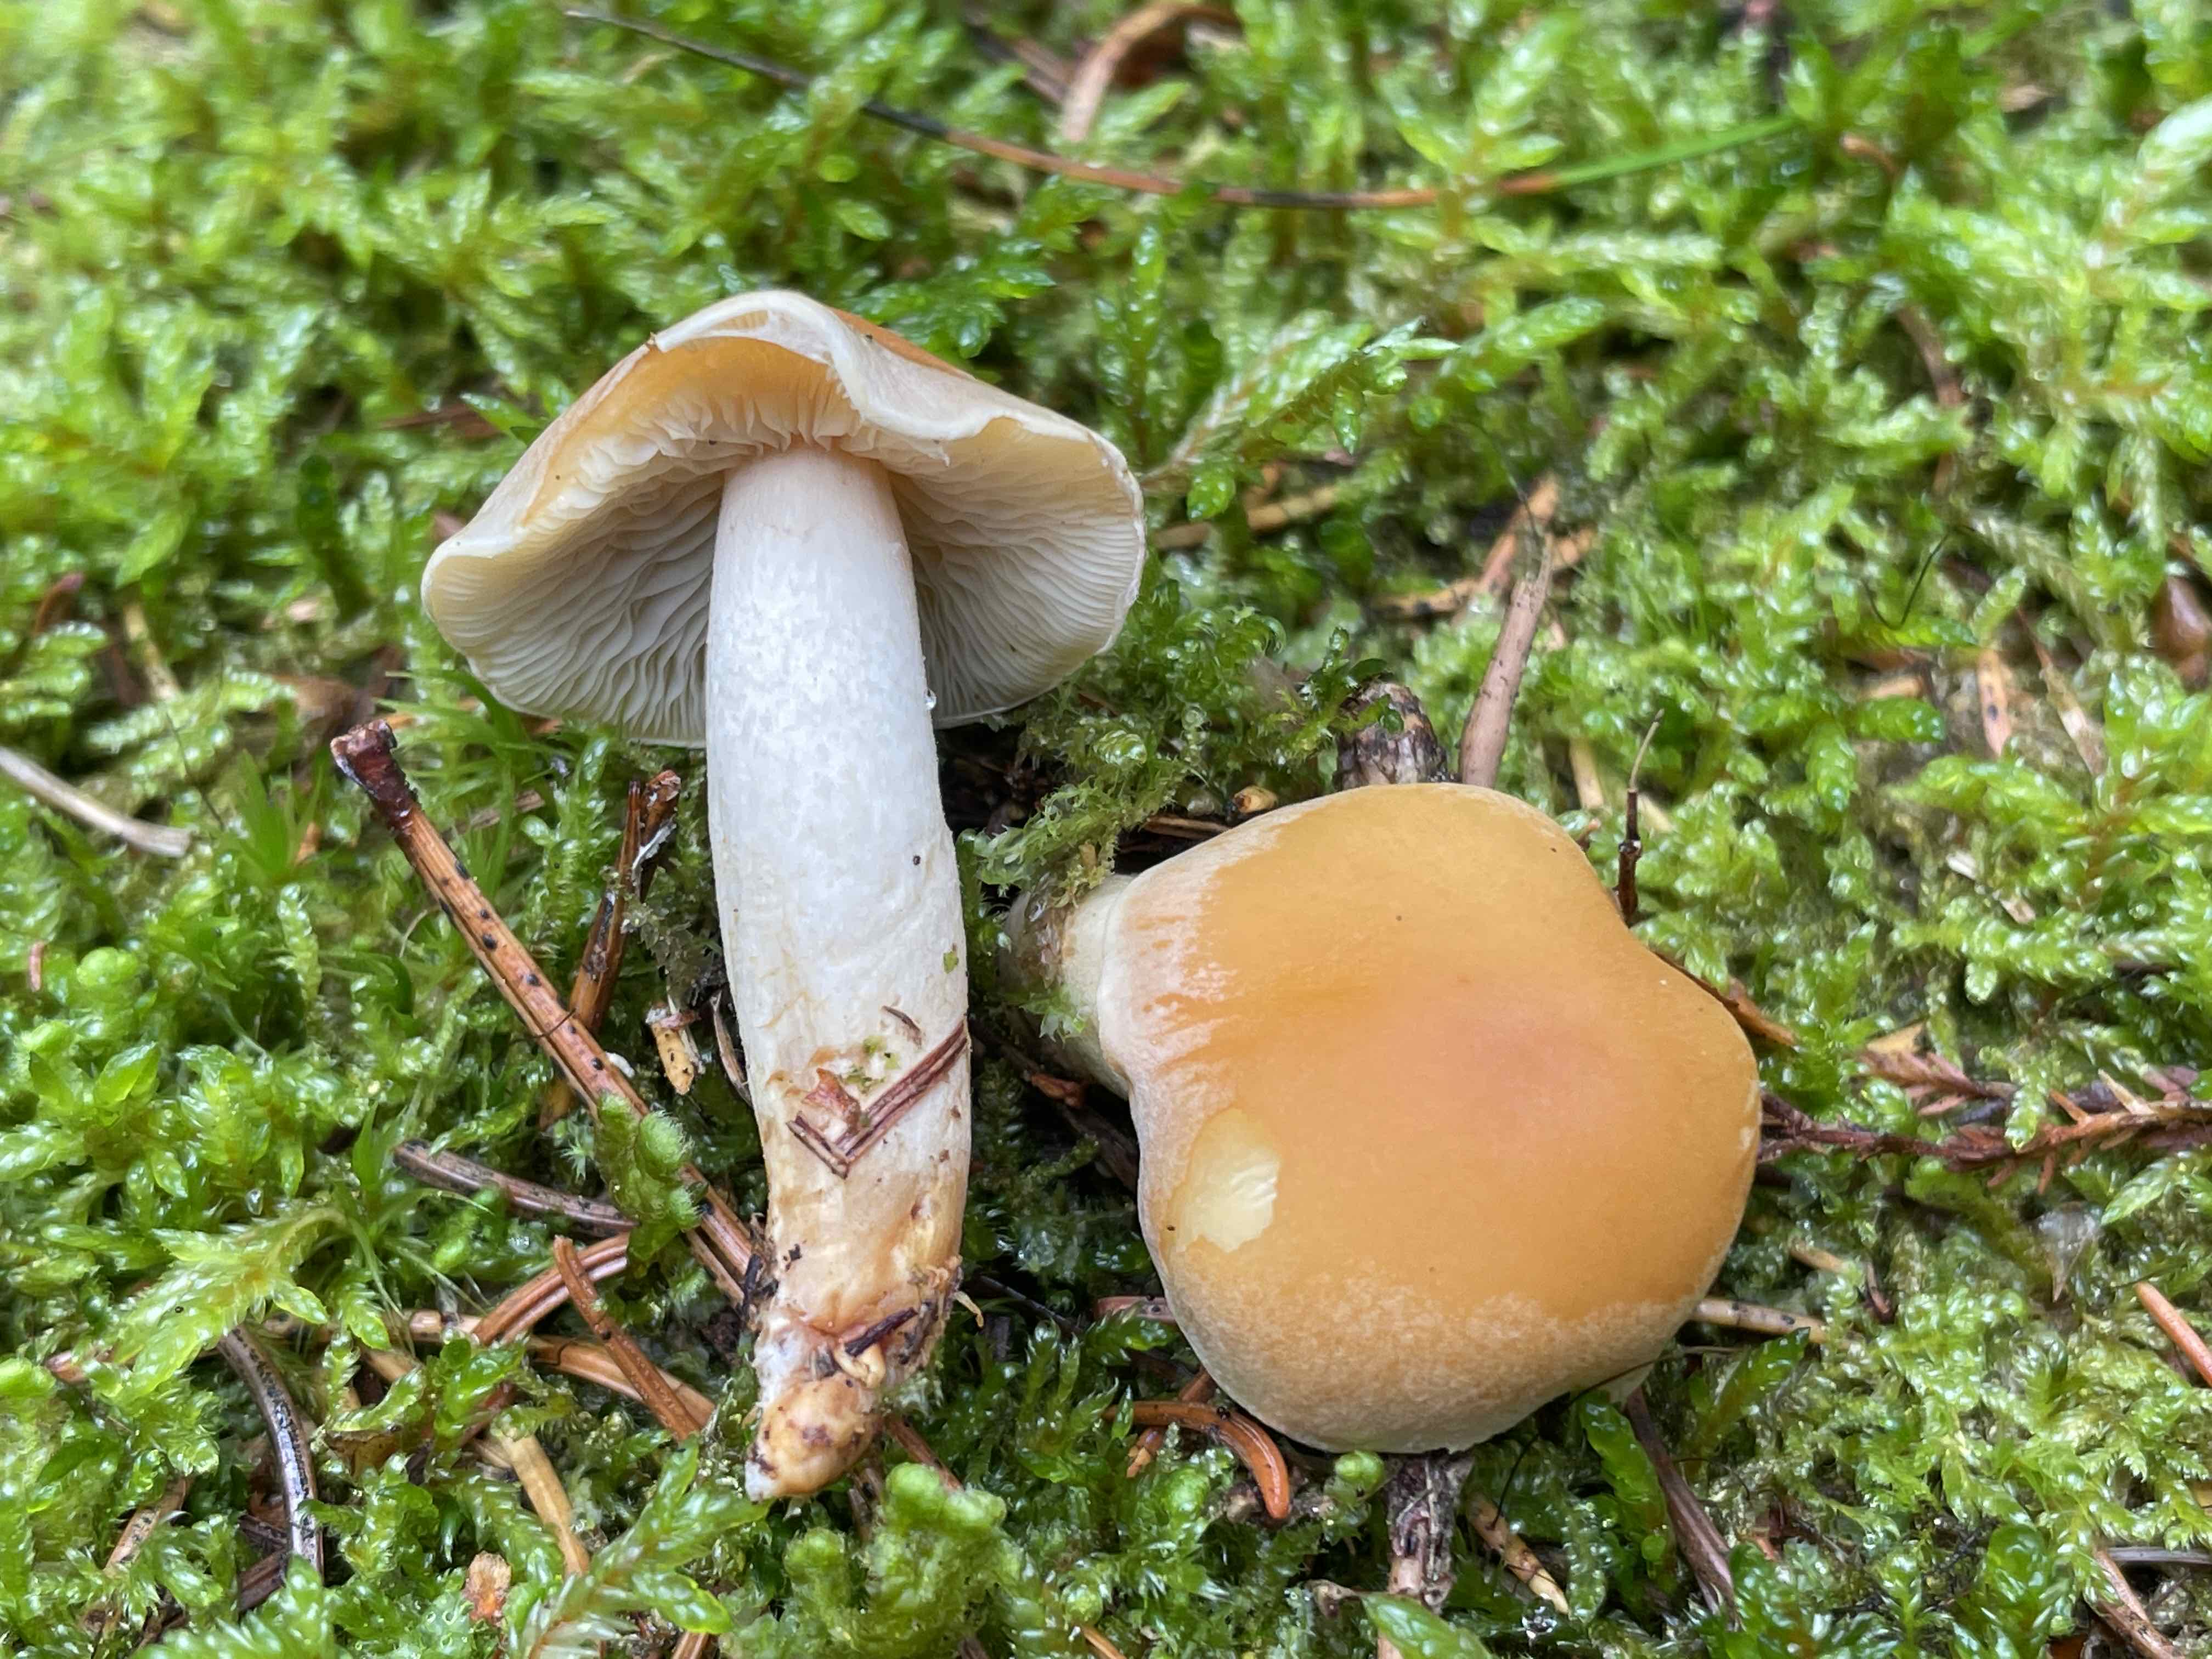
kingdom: Fungi
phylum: Basidiomycota
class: Agaricomycetes
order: Agaricales
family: Strophariaceae
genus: Hypholoma
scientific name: Hypholoma capnoides
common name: gran-svovlhat
